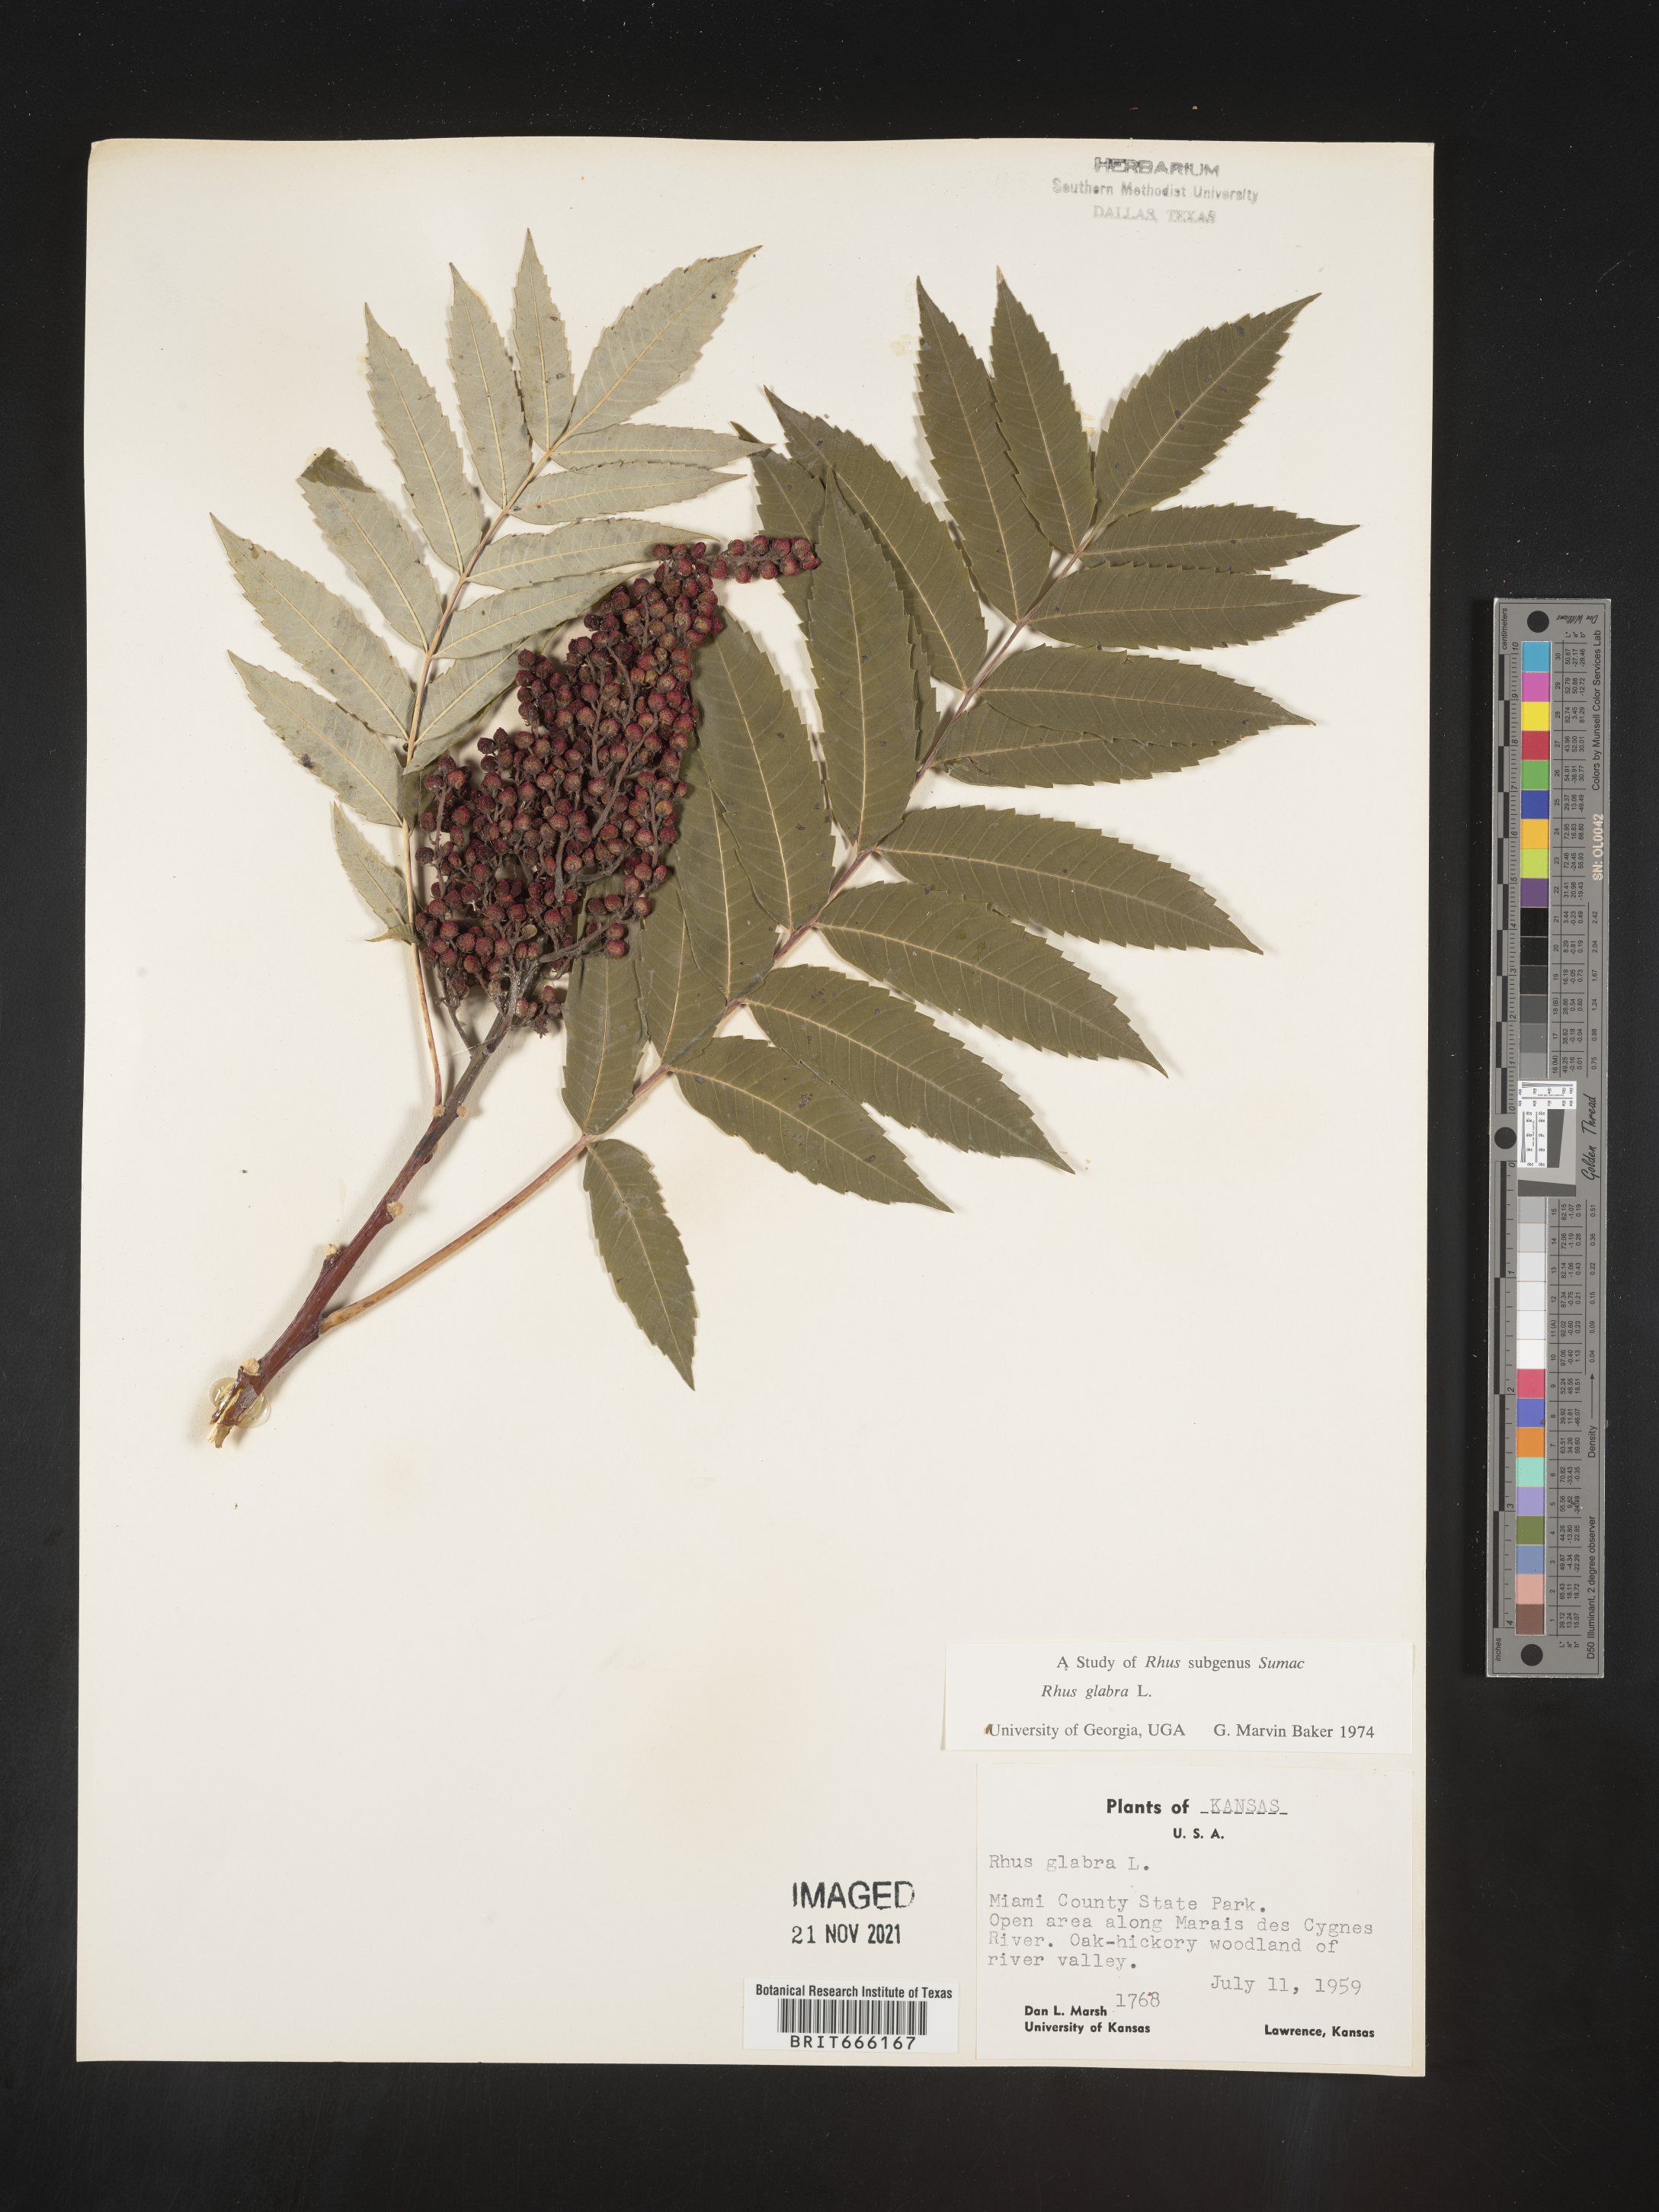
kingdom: Plantae
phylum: Tracheophyta
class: Magnoliopsida
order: Sapindales
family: Anacardiaceae
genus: Rhus
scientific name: Rhus glabra
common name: Scarlet sumac
